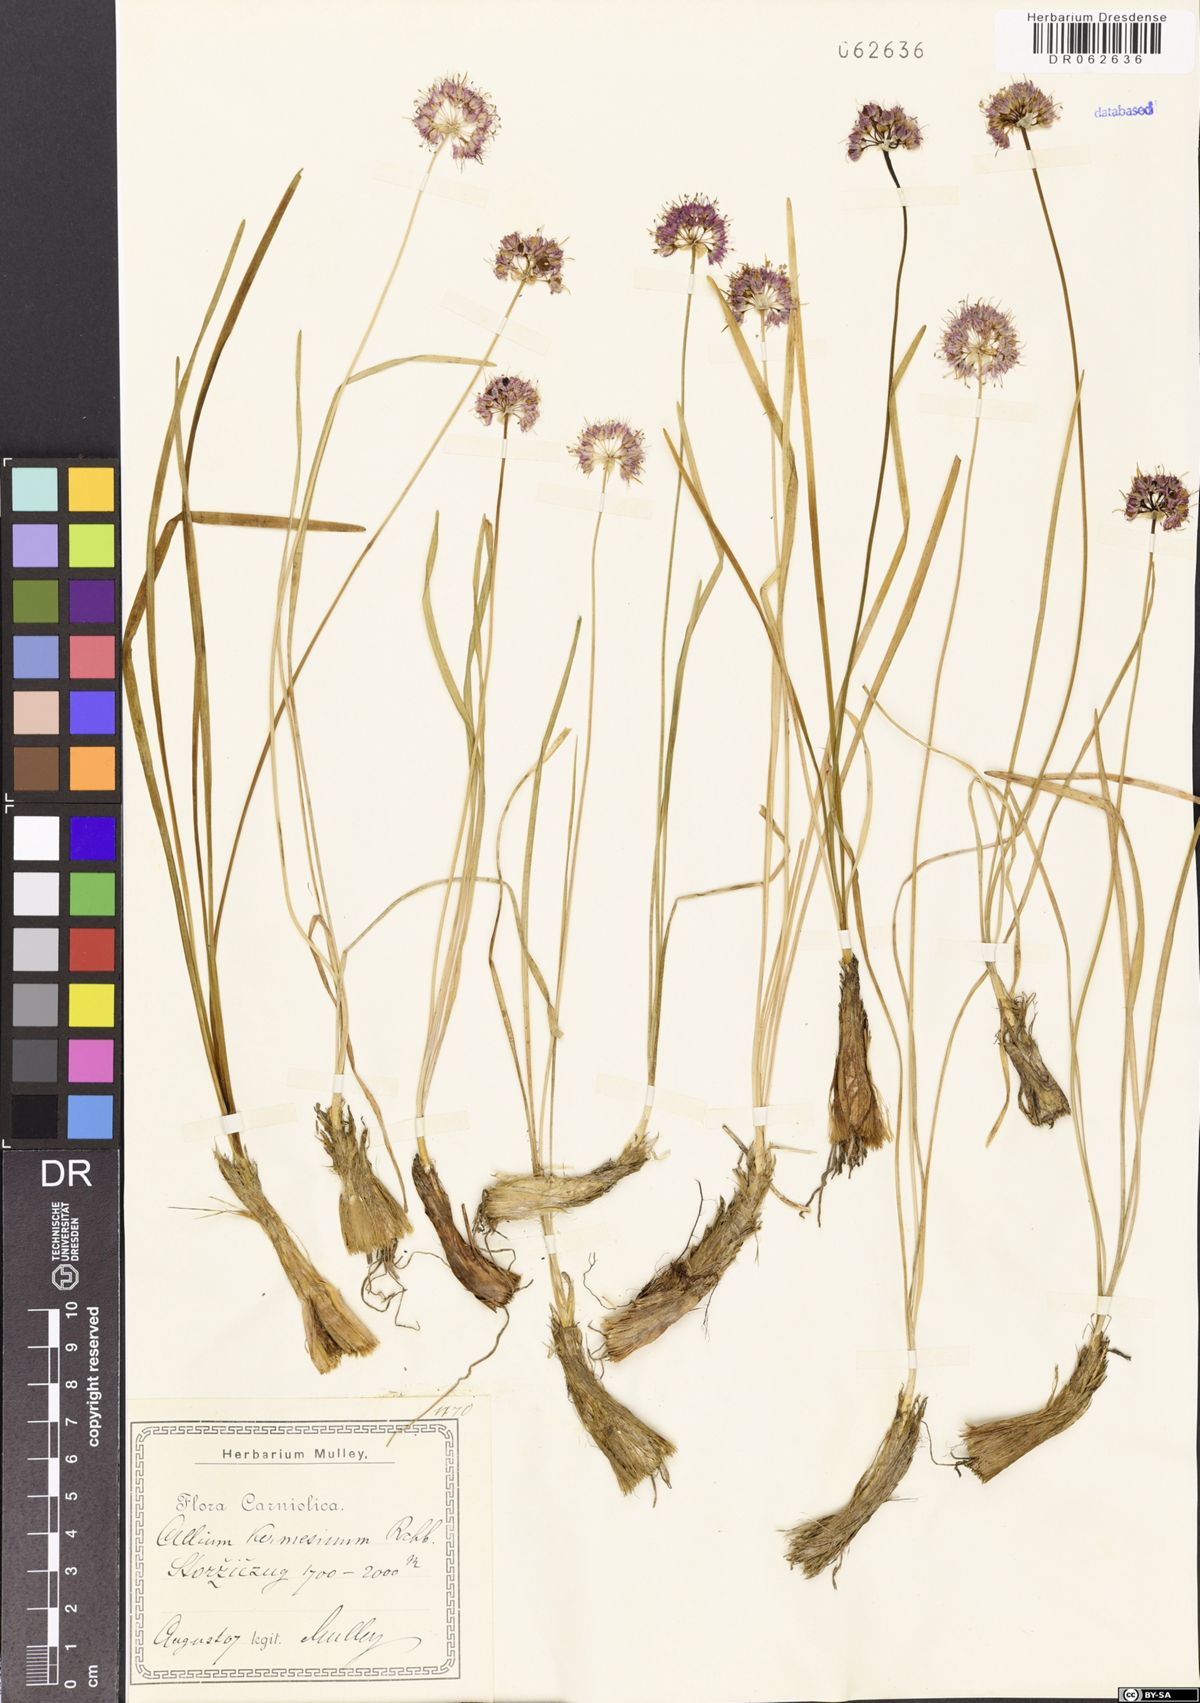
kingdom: Plantae
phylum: Tracheophyta
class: Liliopsida
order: Asparagales
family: Amaryllidaceae
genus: Allium
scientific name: Allium kermesinum
